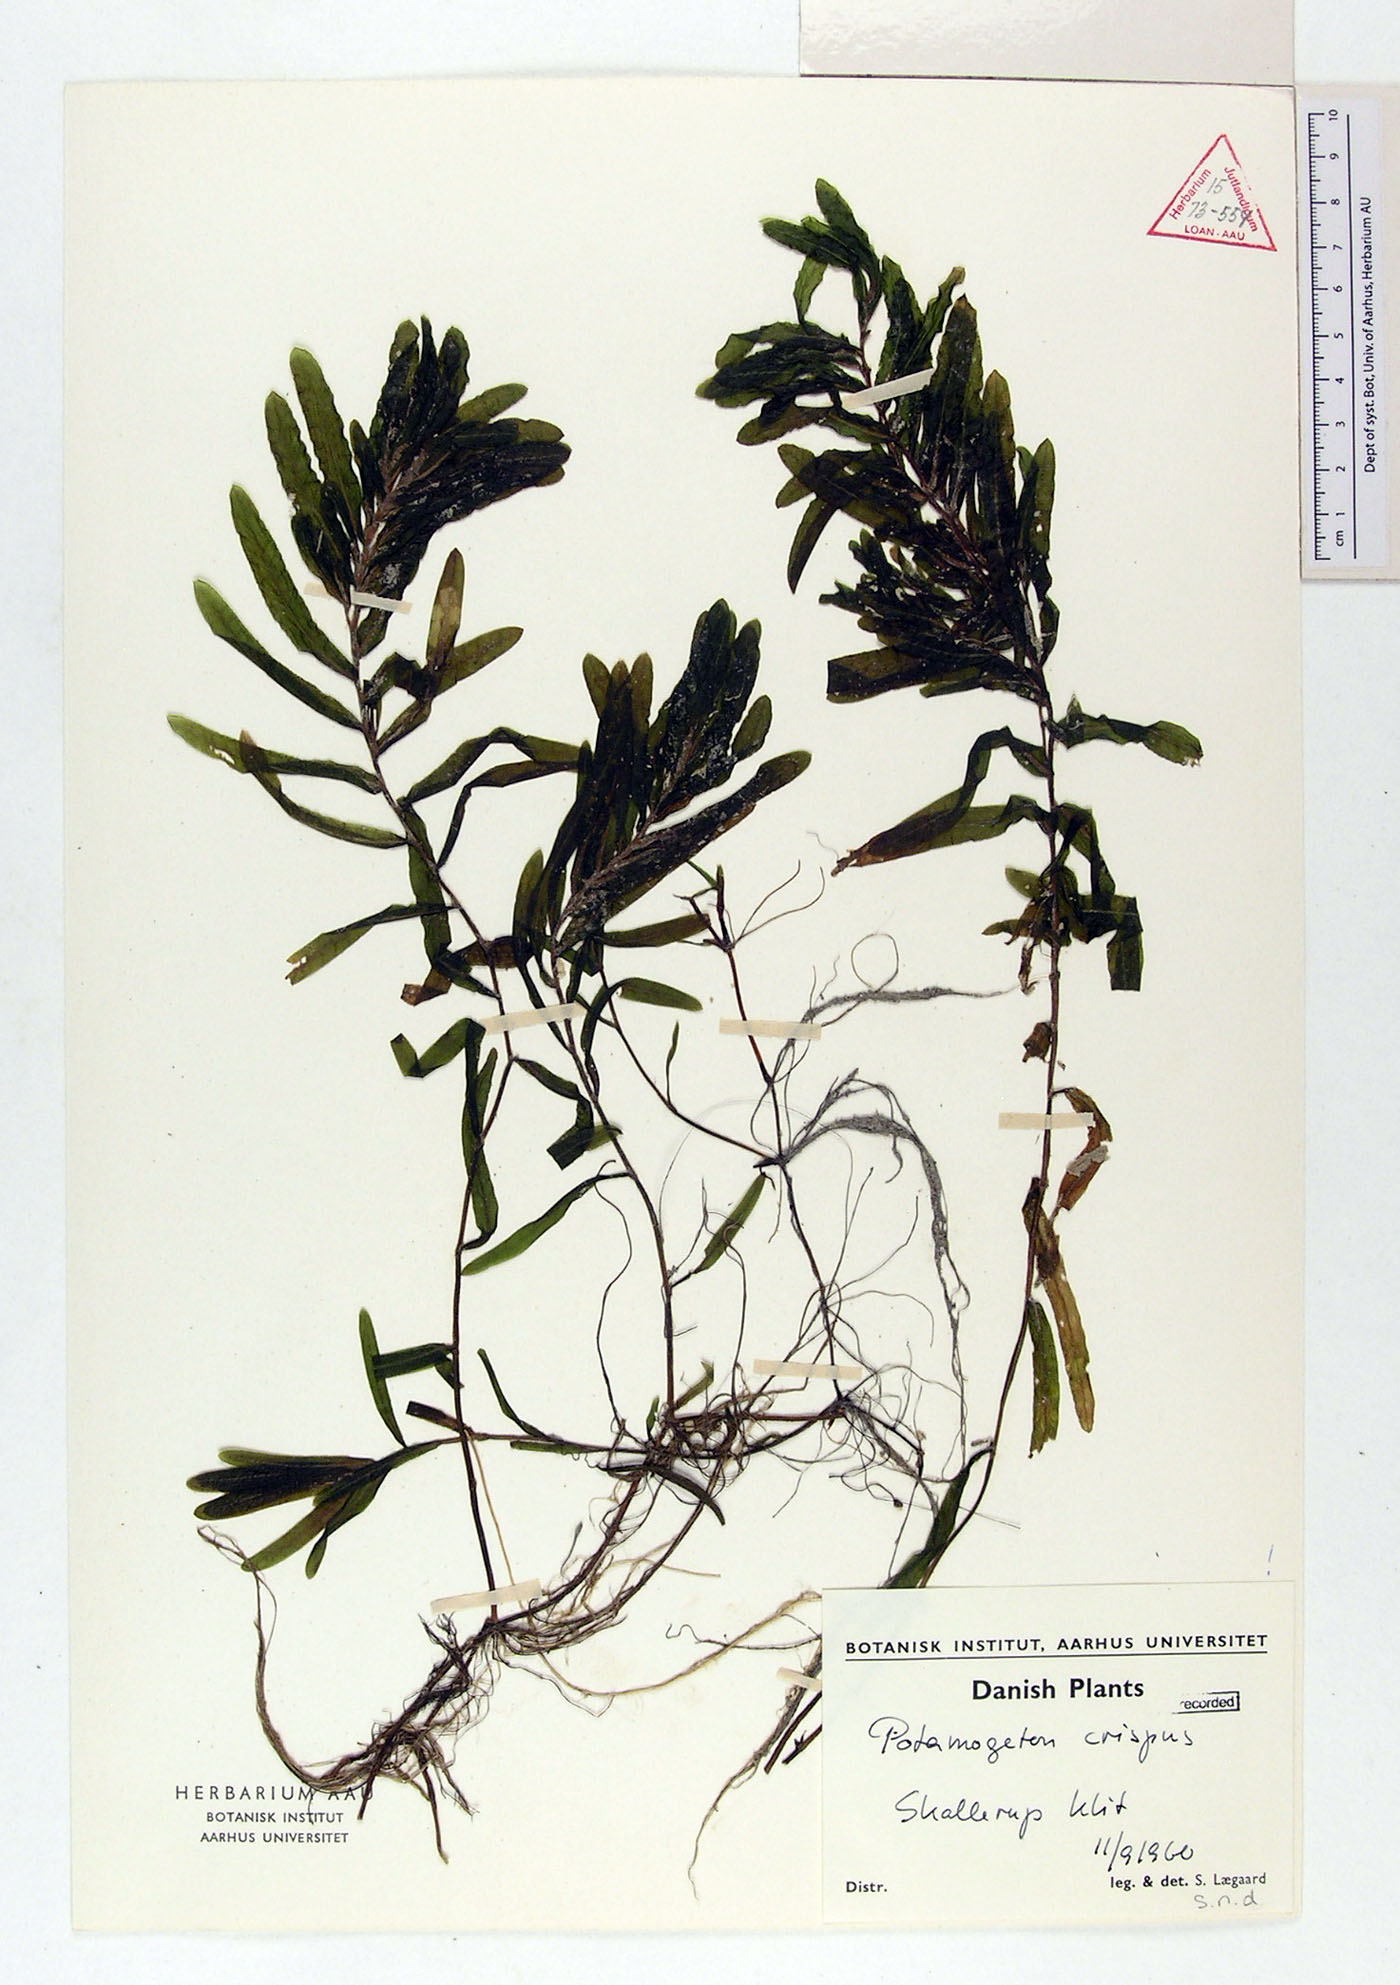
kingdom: Plantae
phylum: Tracheophyta
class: Liliopsida
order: Alismatales
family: Potamogetonaceae
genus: Potamogeton
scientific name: Potamogeton crispus
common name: Curled pondweed
